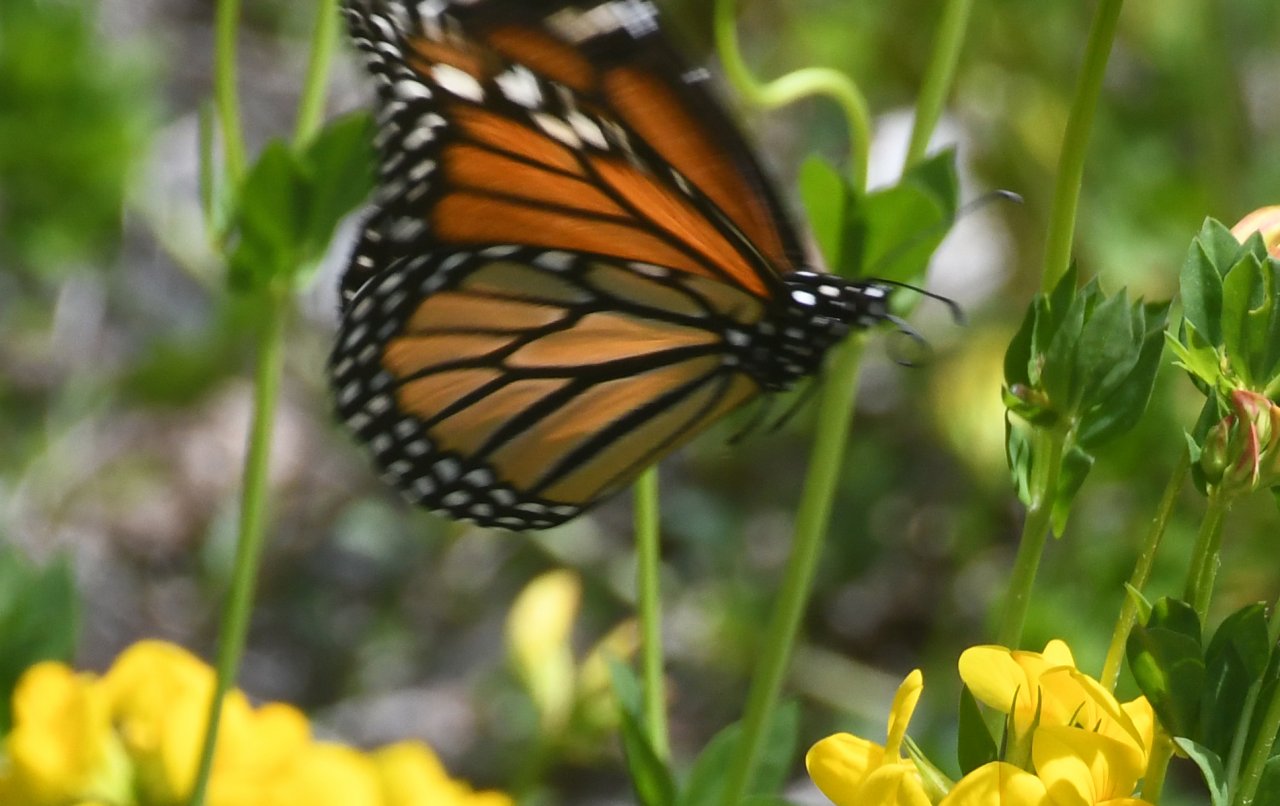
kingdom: Animalia
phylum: Arthropoda
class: Insecta
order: Lepidoptera
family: Nymphalidae
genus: Danaus
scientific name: Danaus plexippus
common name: Monarch
